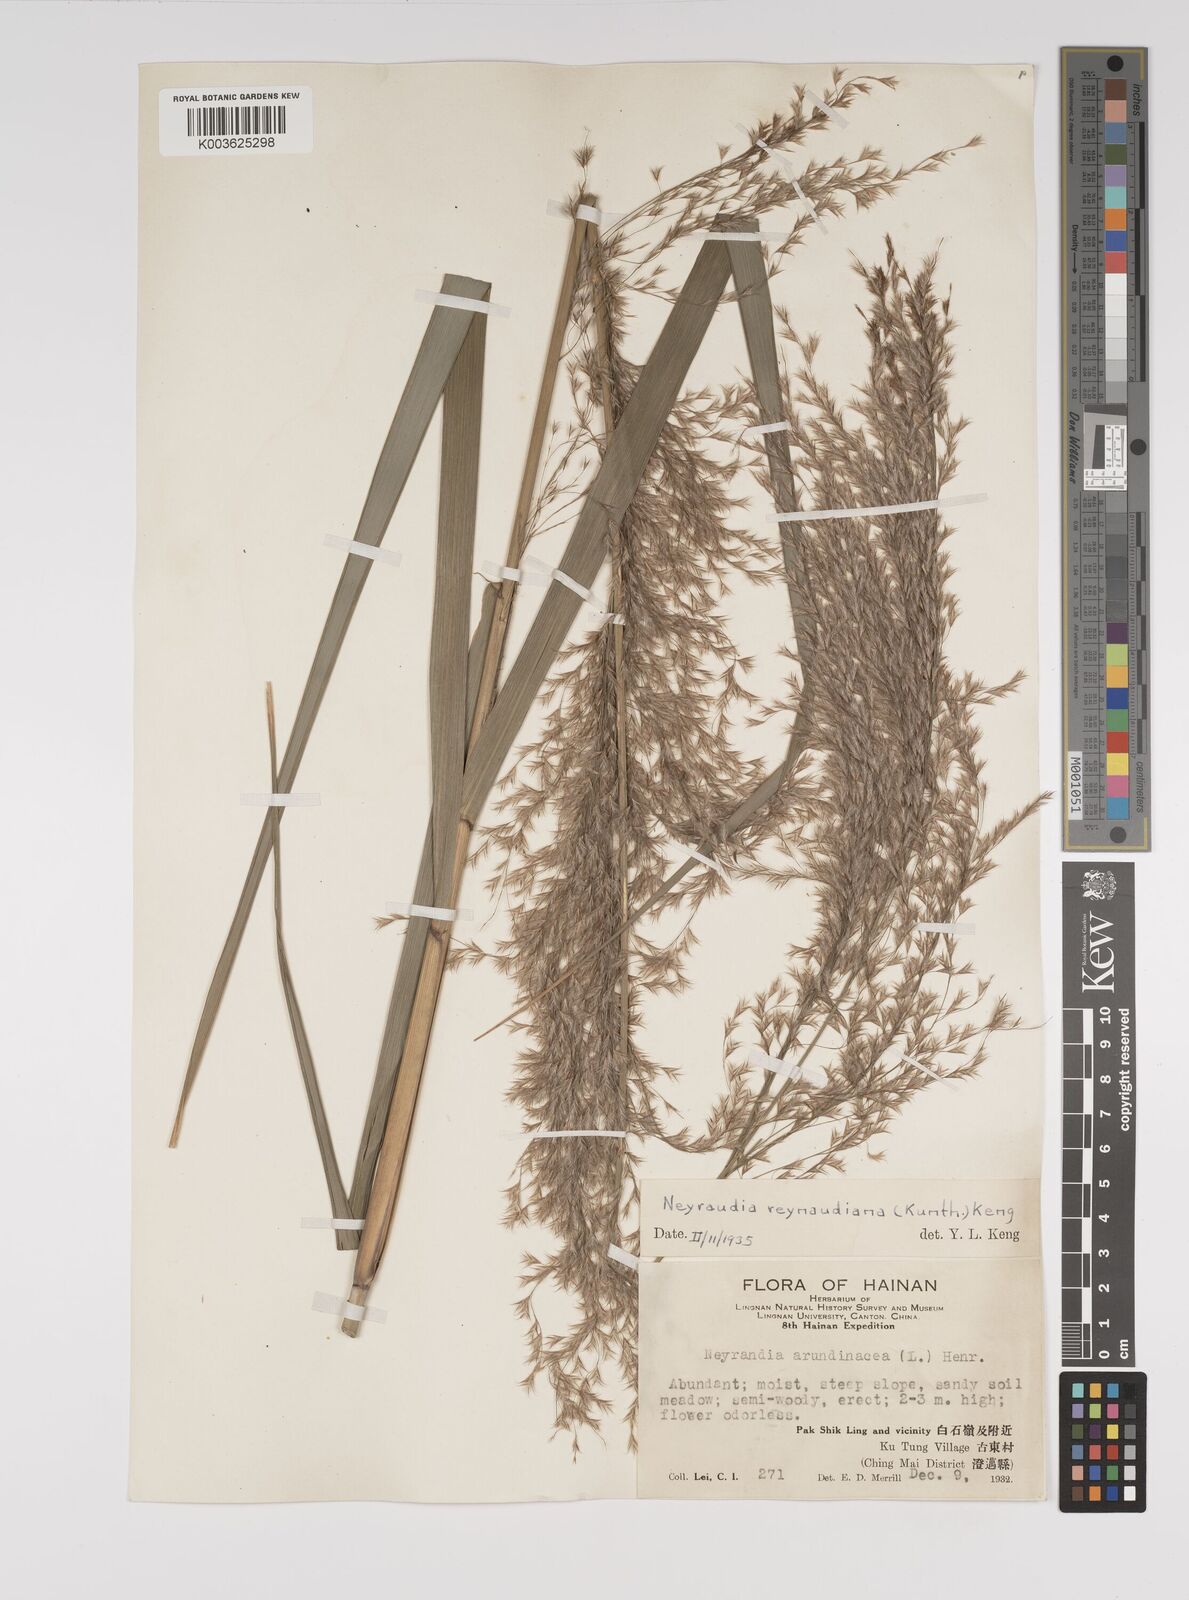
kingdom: Plantae
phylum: Tracheophyta
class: Liliopsida
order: Poales
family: Poaceae
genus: Neyraudia
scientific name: Neyraudia reynaudiana
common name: Silkreed
